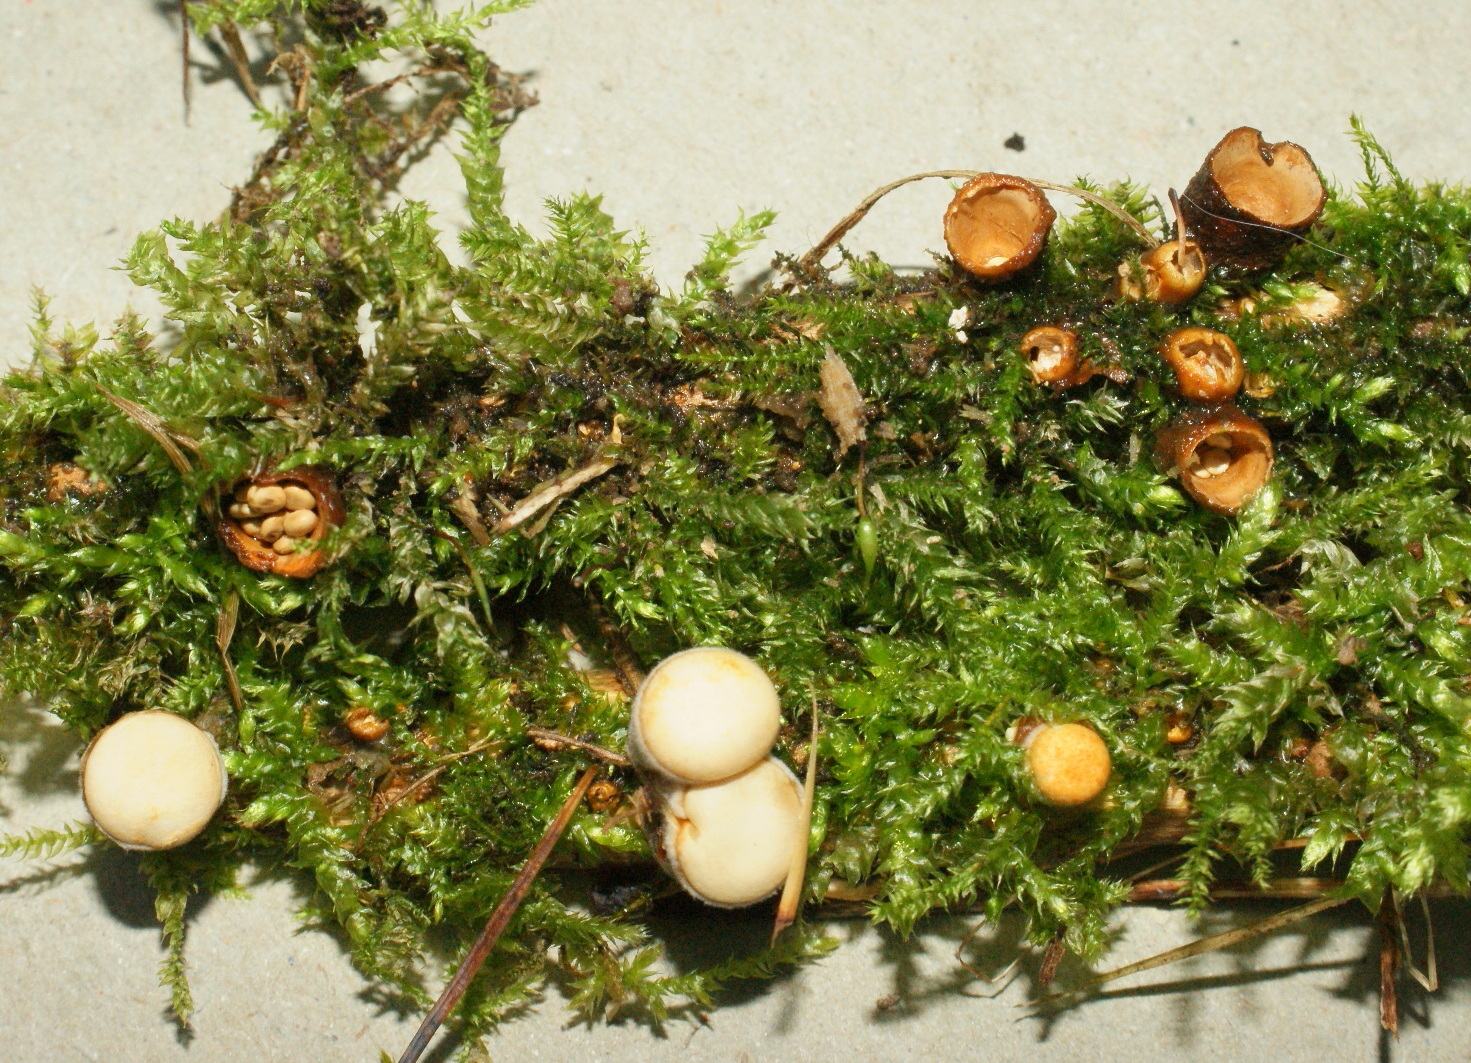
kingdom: Fungi
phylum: Basidiomycota
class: Agaricomycetes
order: Agaricales
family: Nidulariaceae
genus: Crucibulum
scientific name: Crucibulum crucibuliforme
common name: krukkesvamp
